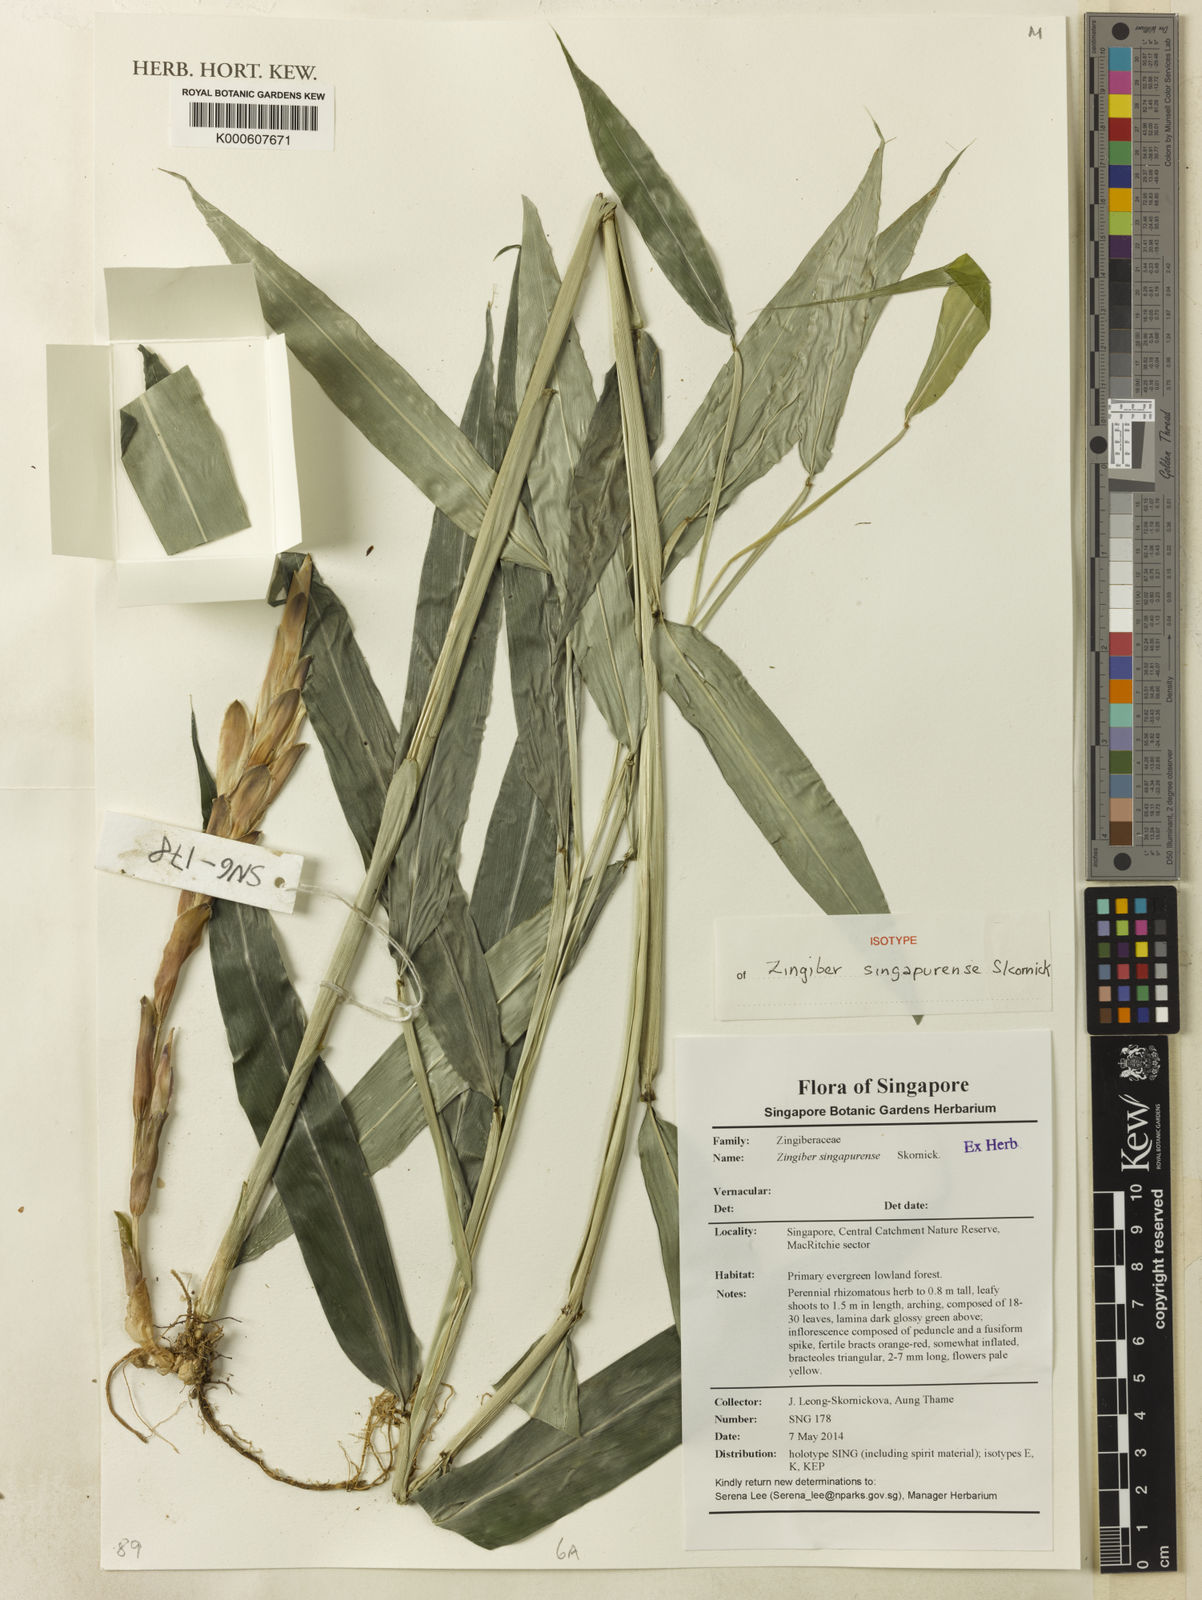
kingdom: Plantae
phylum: Tracheophyta
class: Liliopsida
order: Zingiberales
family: Zingiberaceae
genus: Zingiber
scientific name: Zingiber
